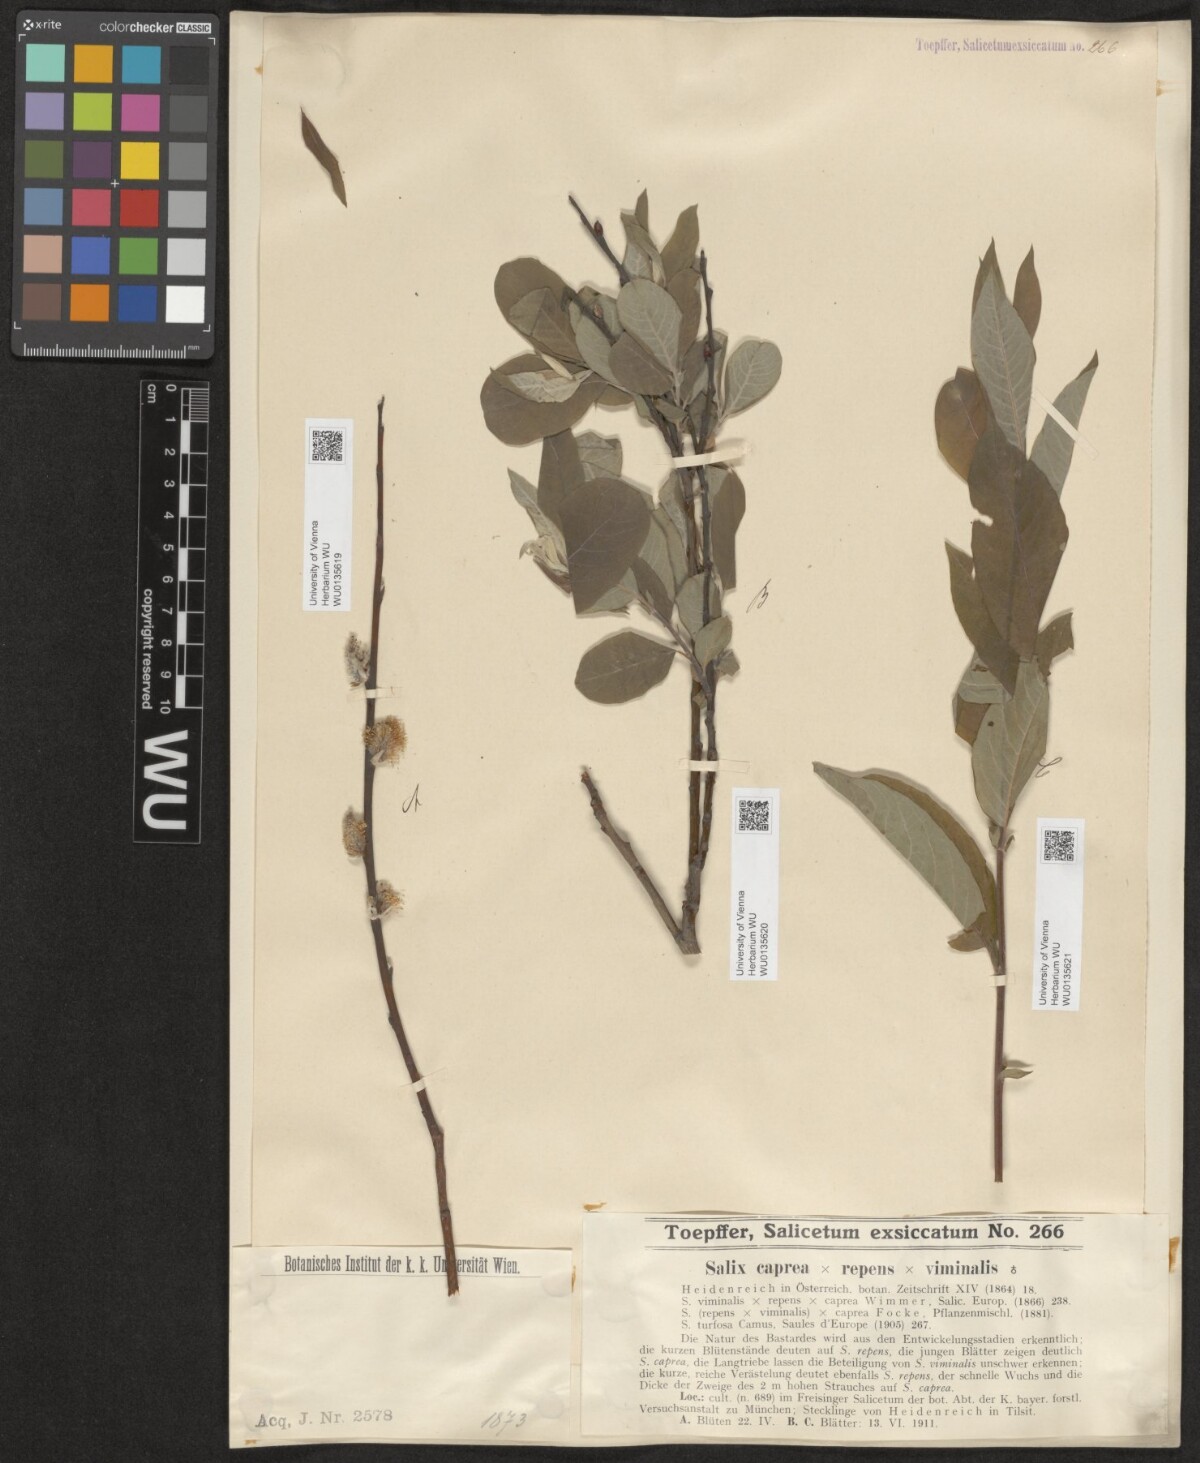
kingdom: Plantae
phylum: Tracheophyta
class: Magnoliopsida
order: Malpighiales
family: Salicaceae
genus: Salix
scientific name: Salix
